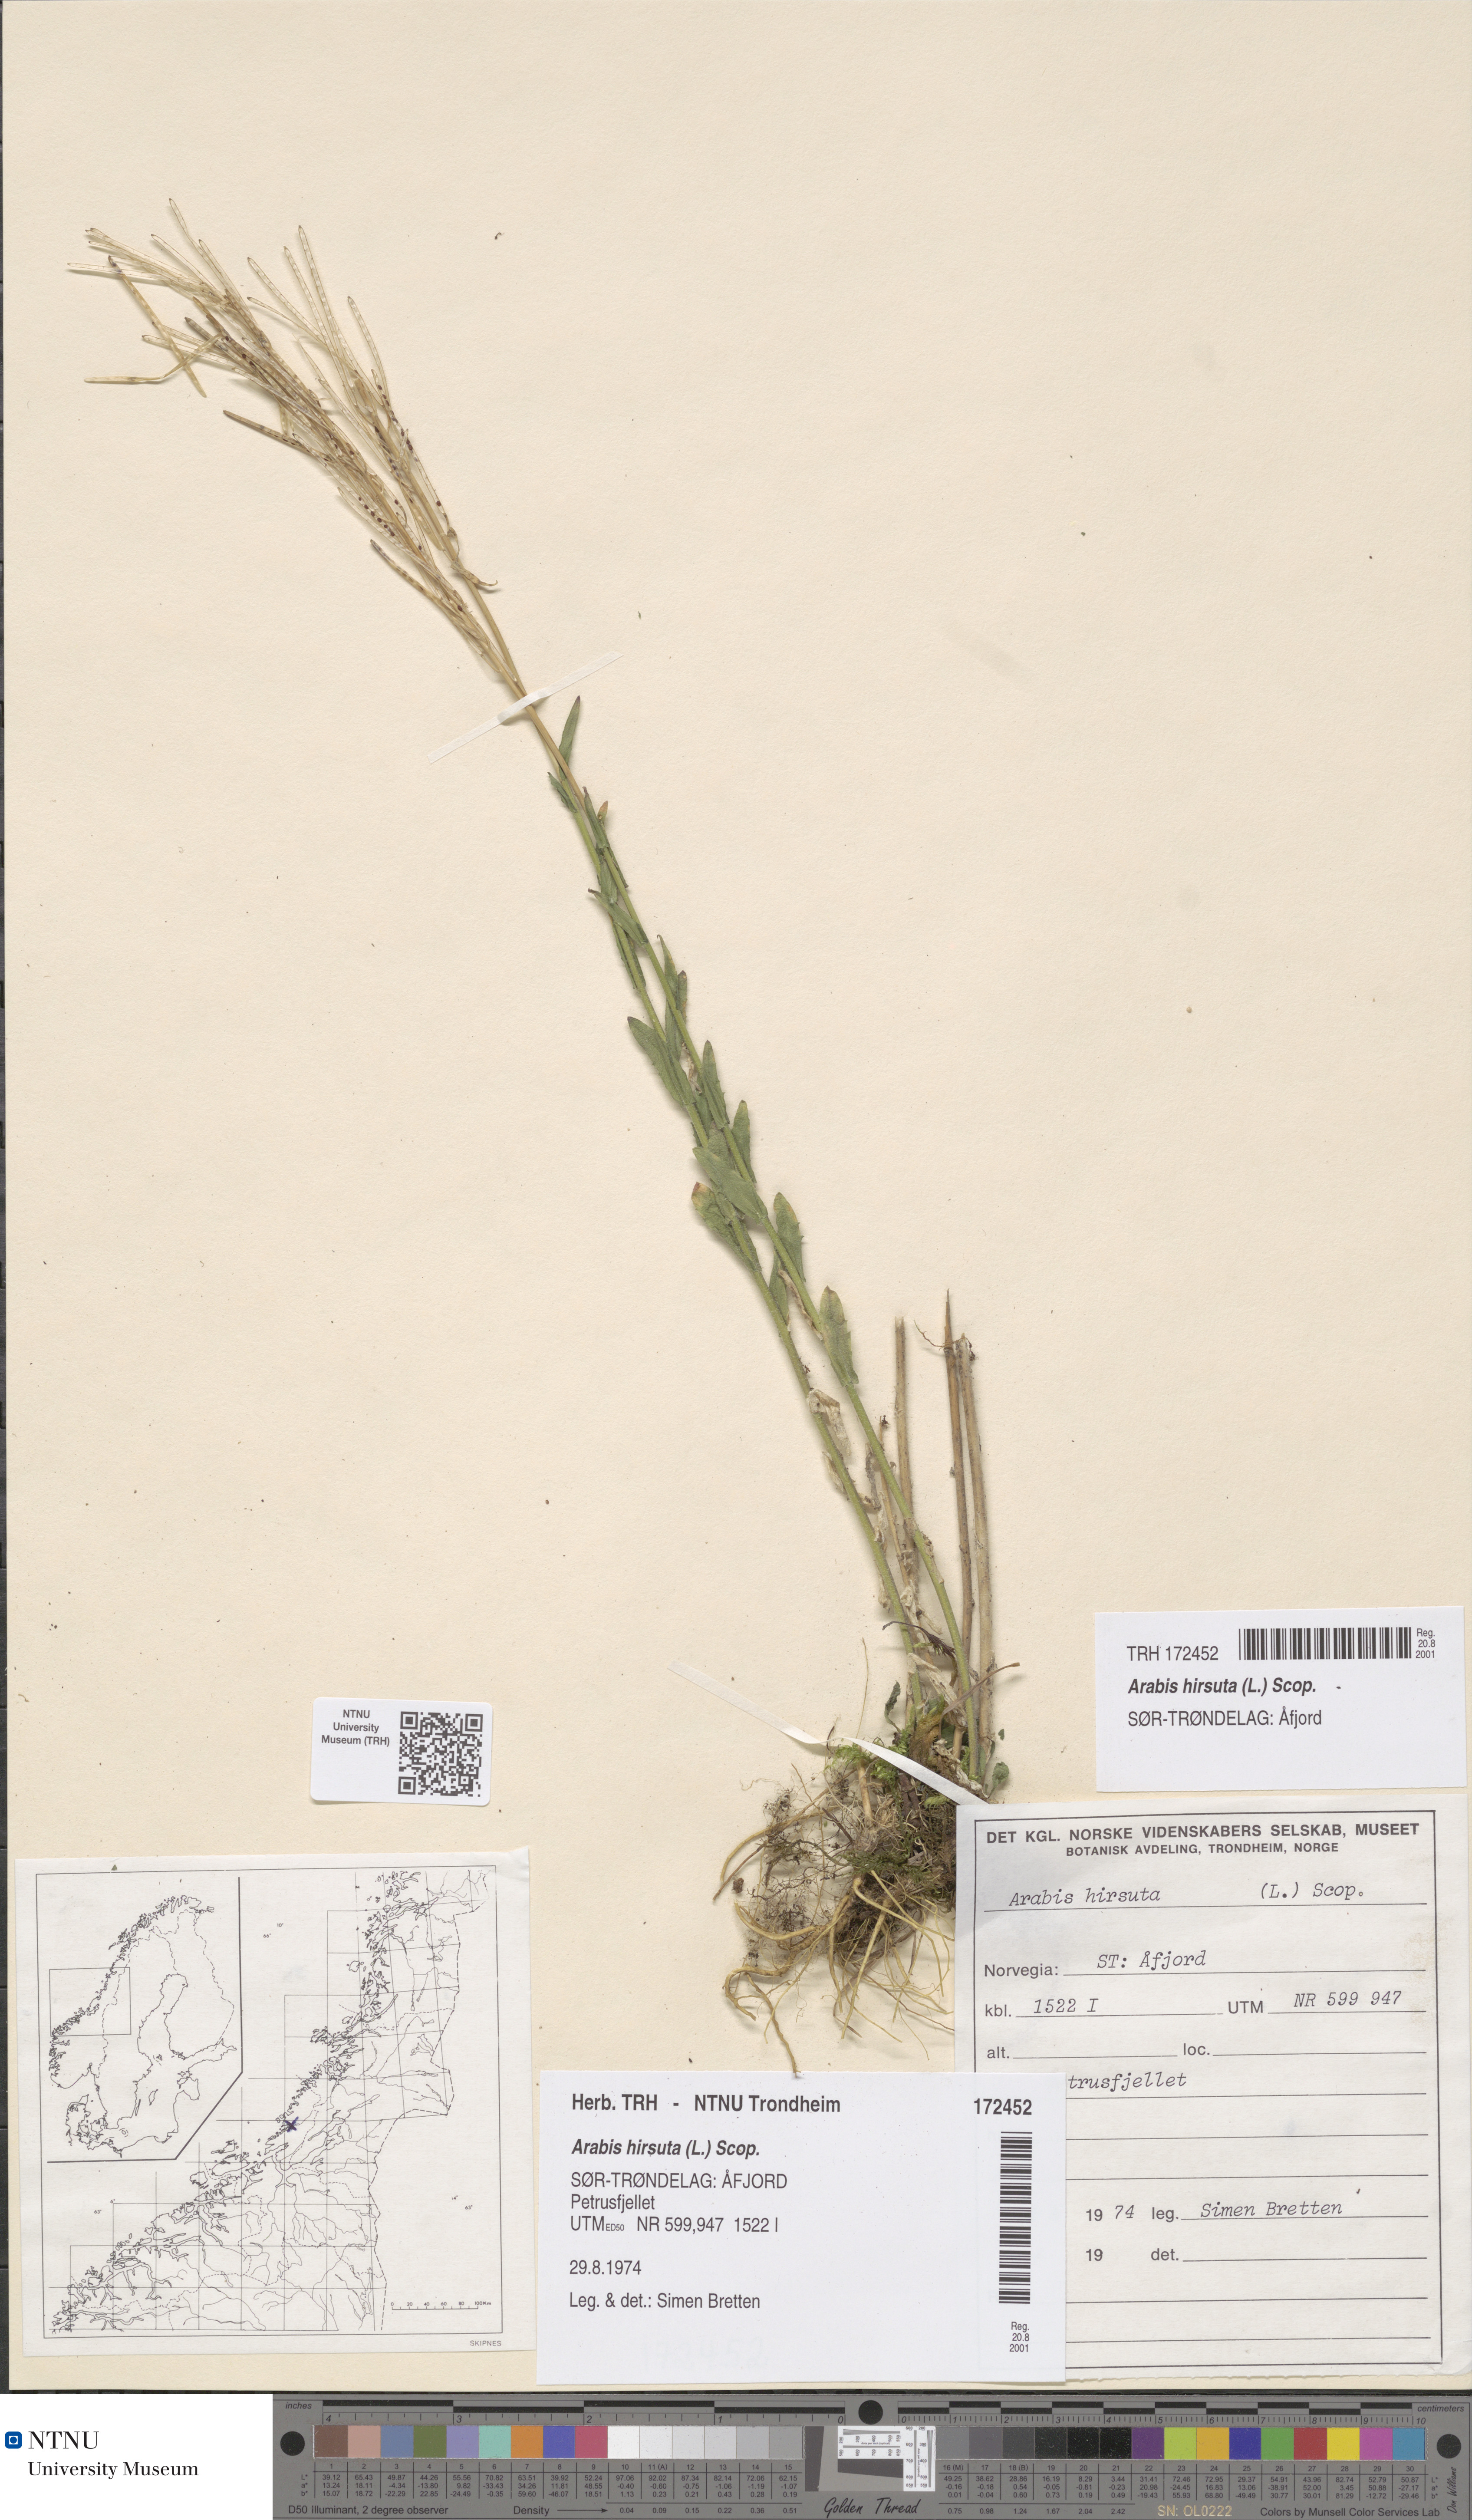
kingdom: Plantae
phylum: Tracheophyta
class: Magnoliopsida
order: Brassicales
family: Brassicaceae
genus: Arabis
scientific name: Arabis hirsuta
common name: Hairy rock-cress
